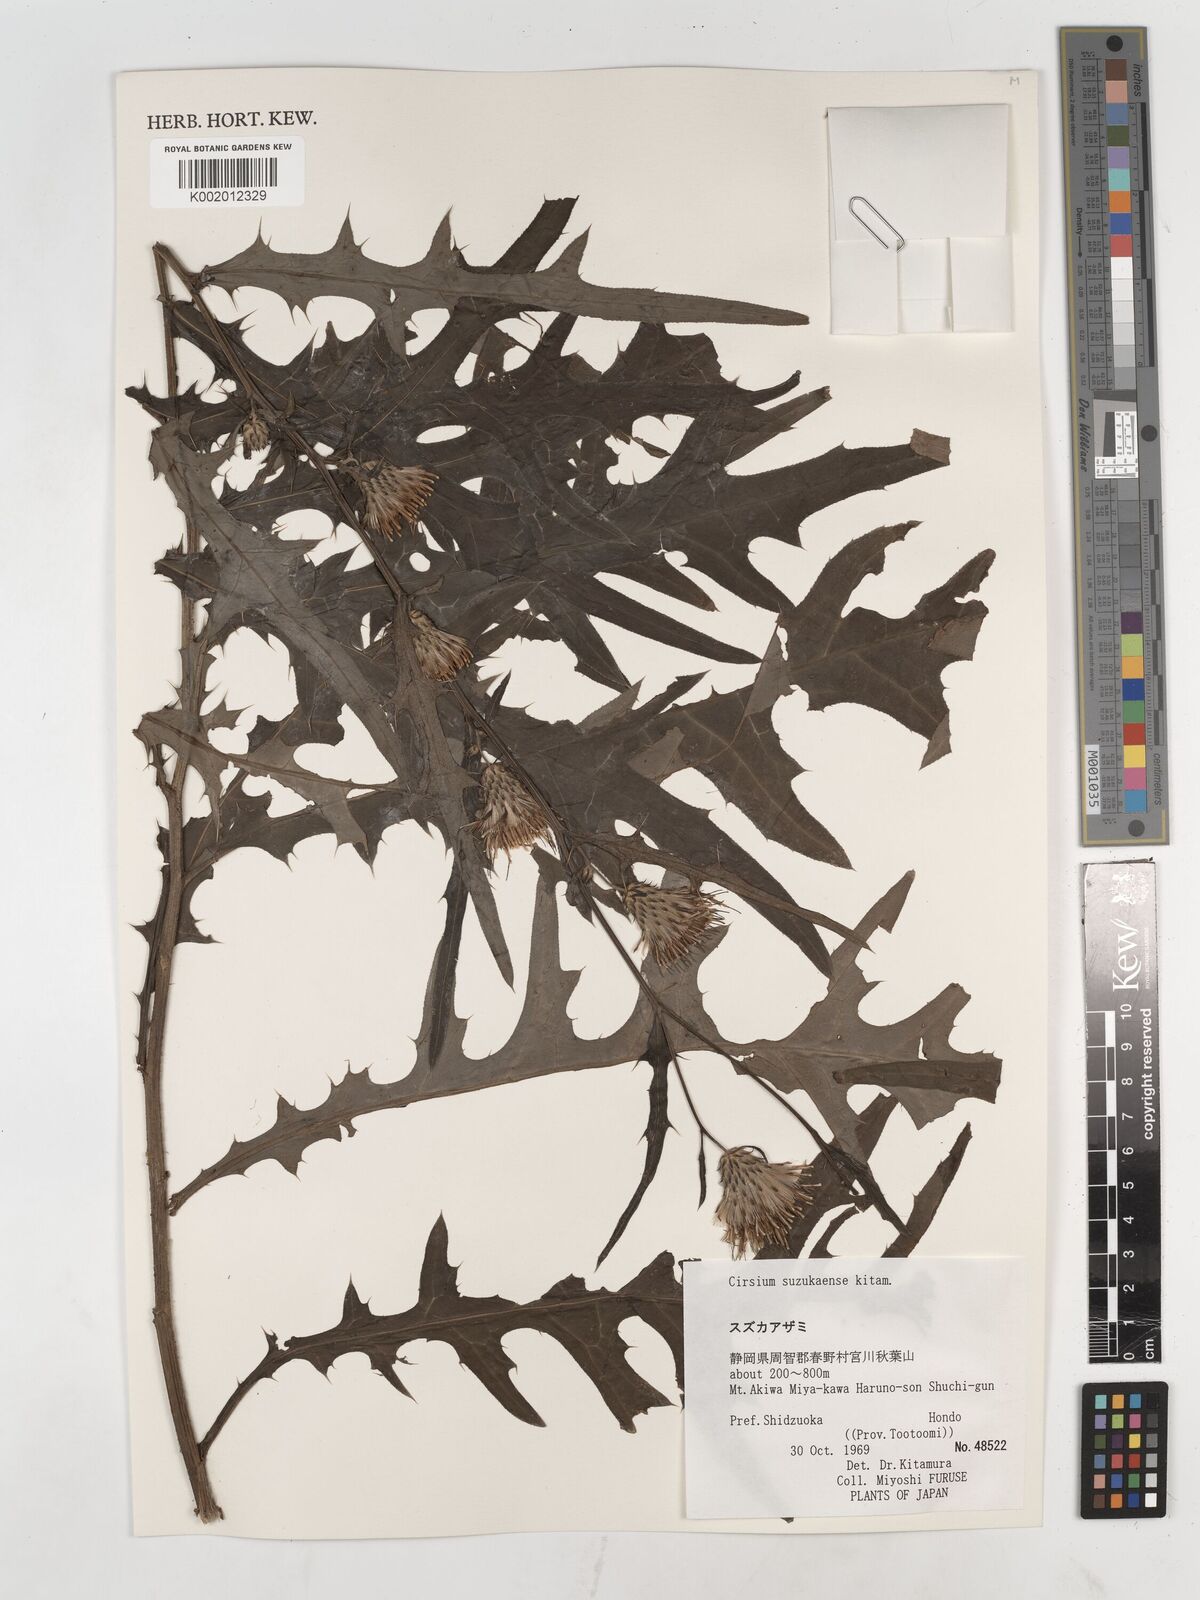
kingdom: Plantae
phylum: Tracheophyta
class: Magnoliopsida
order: Asterales
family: Asteraceae
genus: Cirsium
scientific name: Cirsium suzukaense
